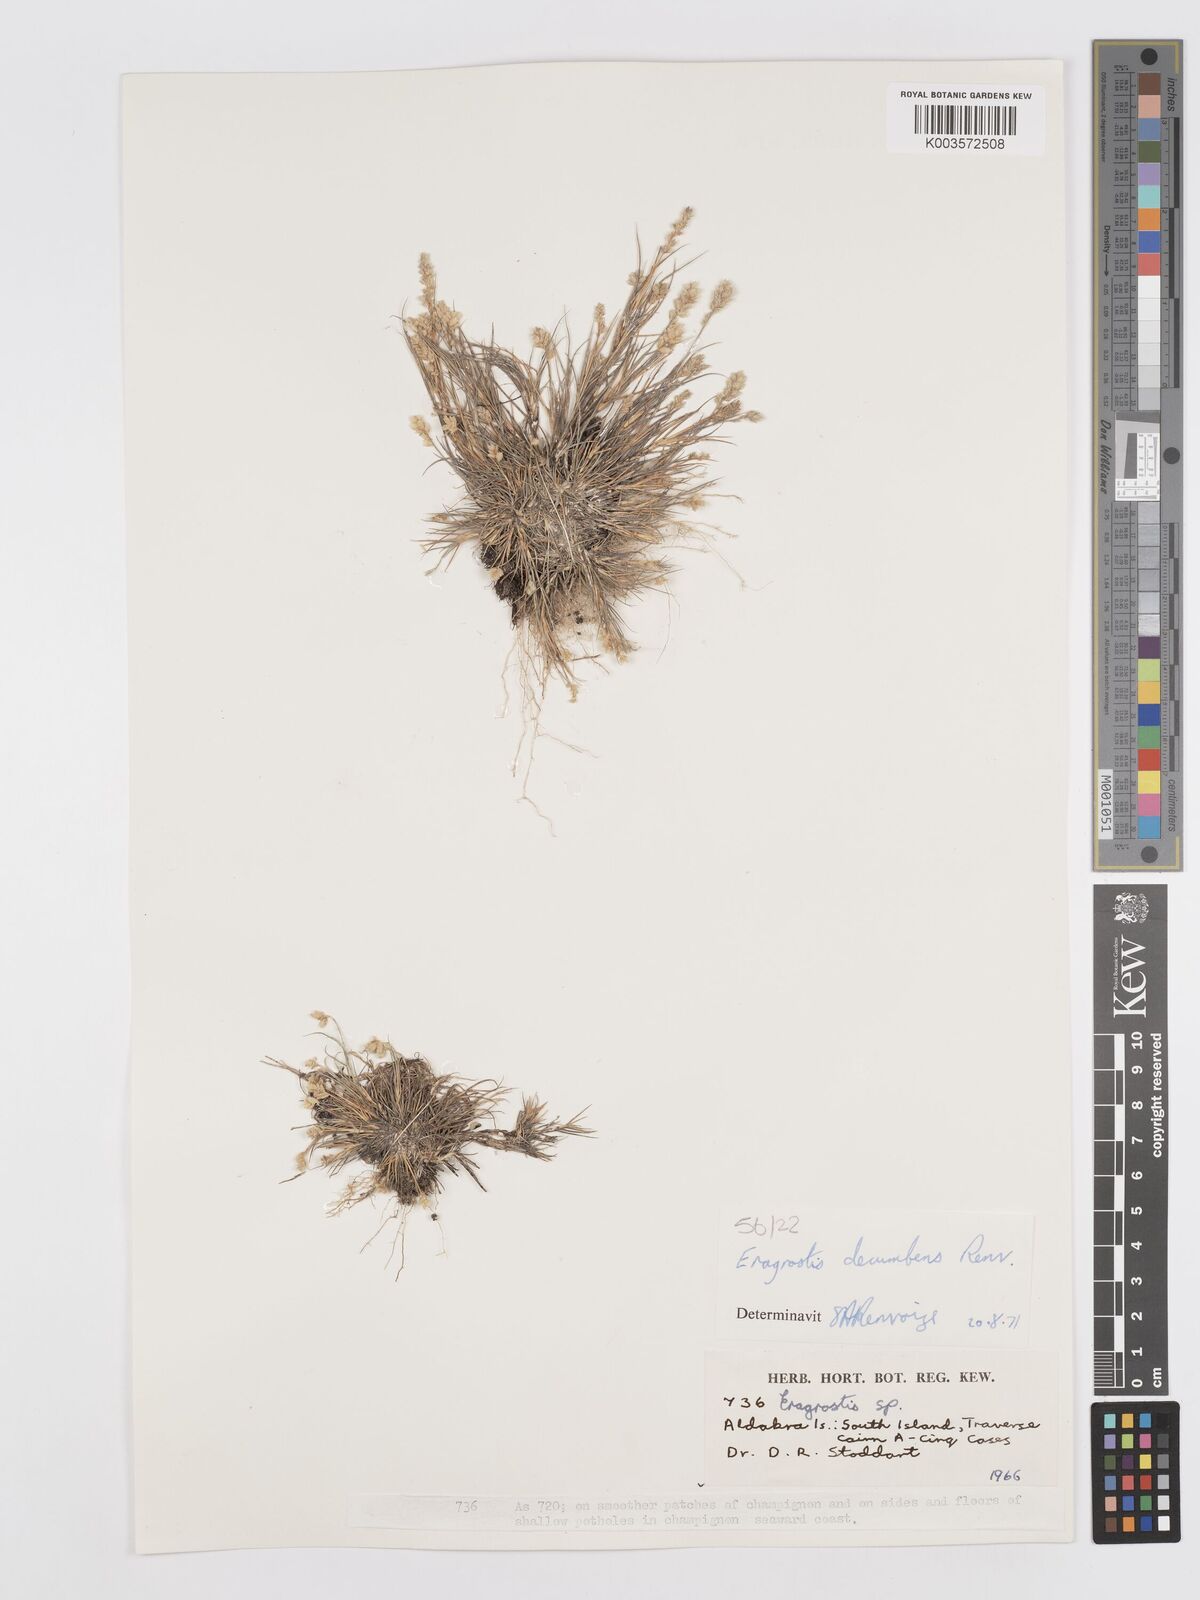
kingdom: Plantae
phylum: Tracheophyta
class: Liliopsida
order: Poales
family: Poaceae
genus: Eragrostis
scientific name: Eragrostis decumbens
